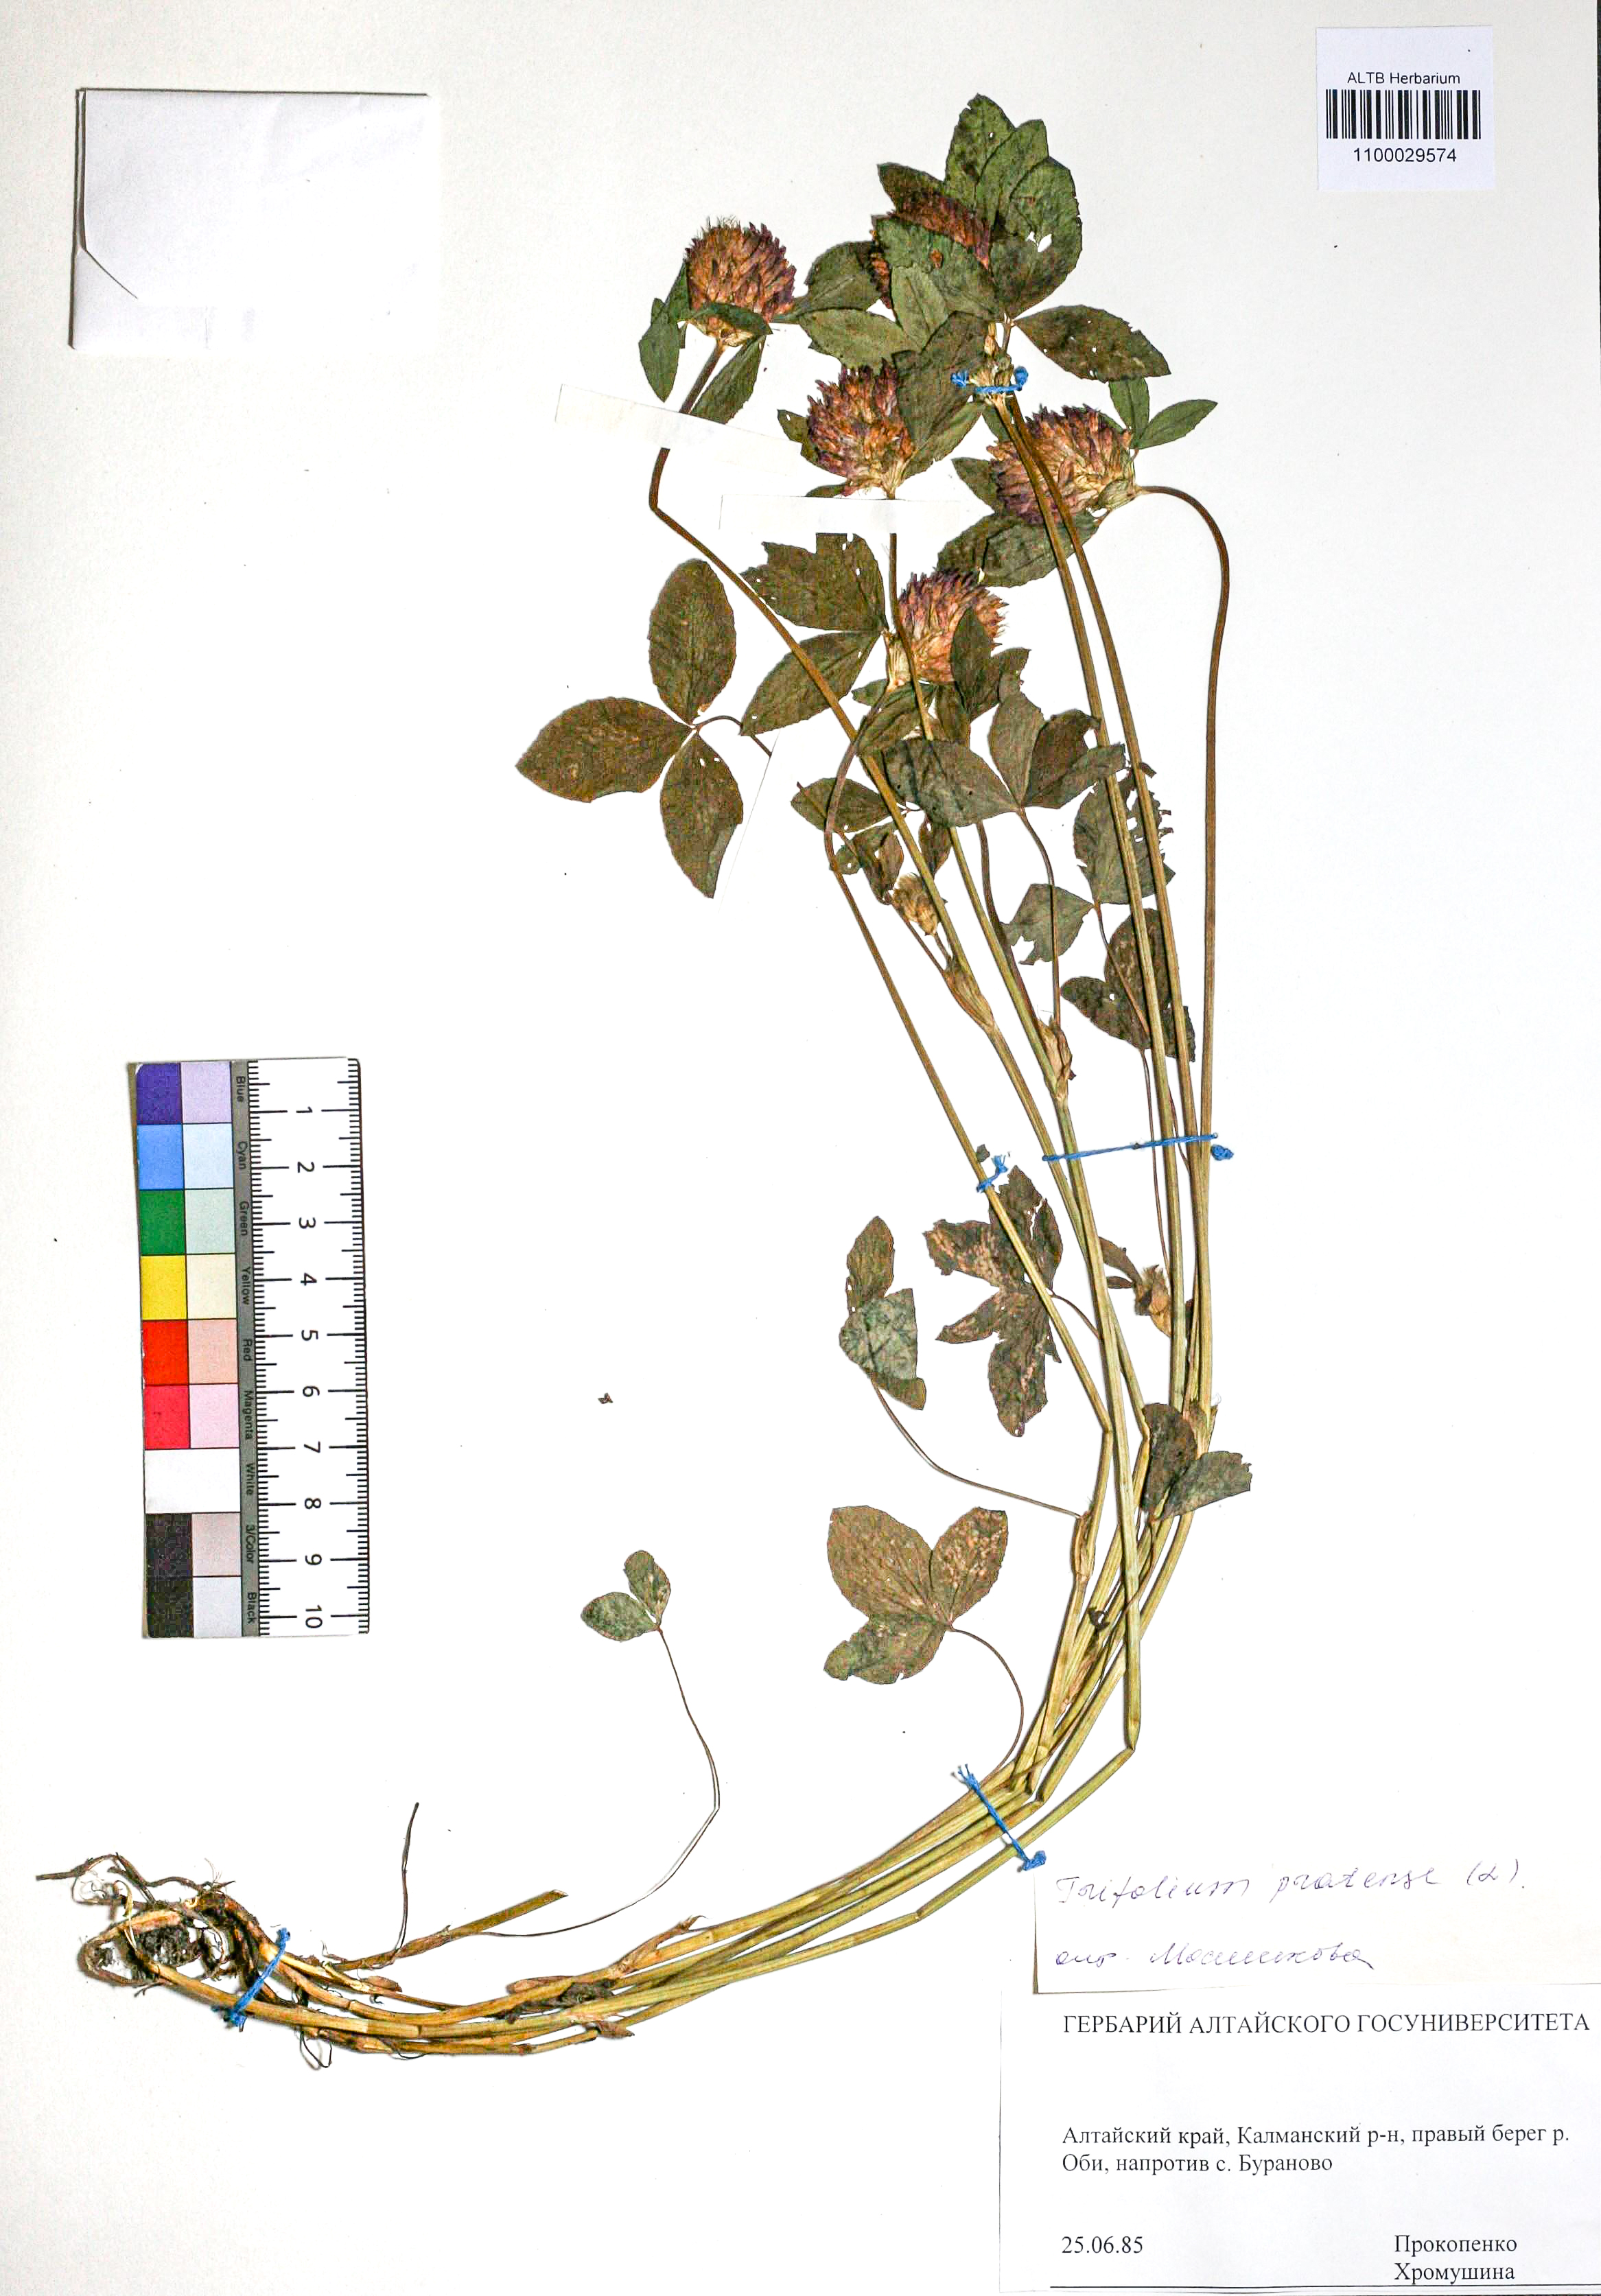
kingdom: Plantae
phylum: Tracheophyta
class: Magnoliopsida
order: Fabales
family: Fabaceae
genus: Trifolium
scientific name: Trifolium pratense
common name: Red clover
